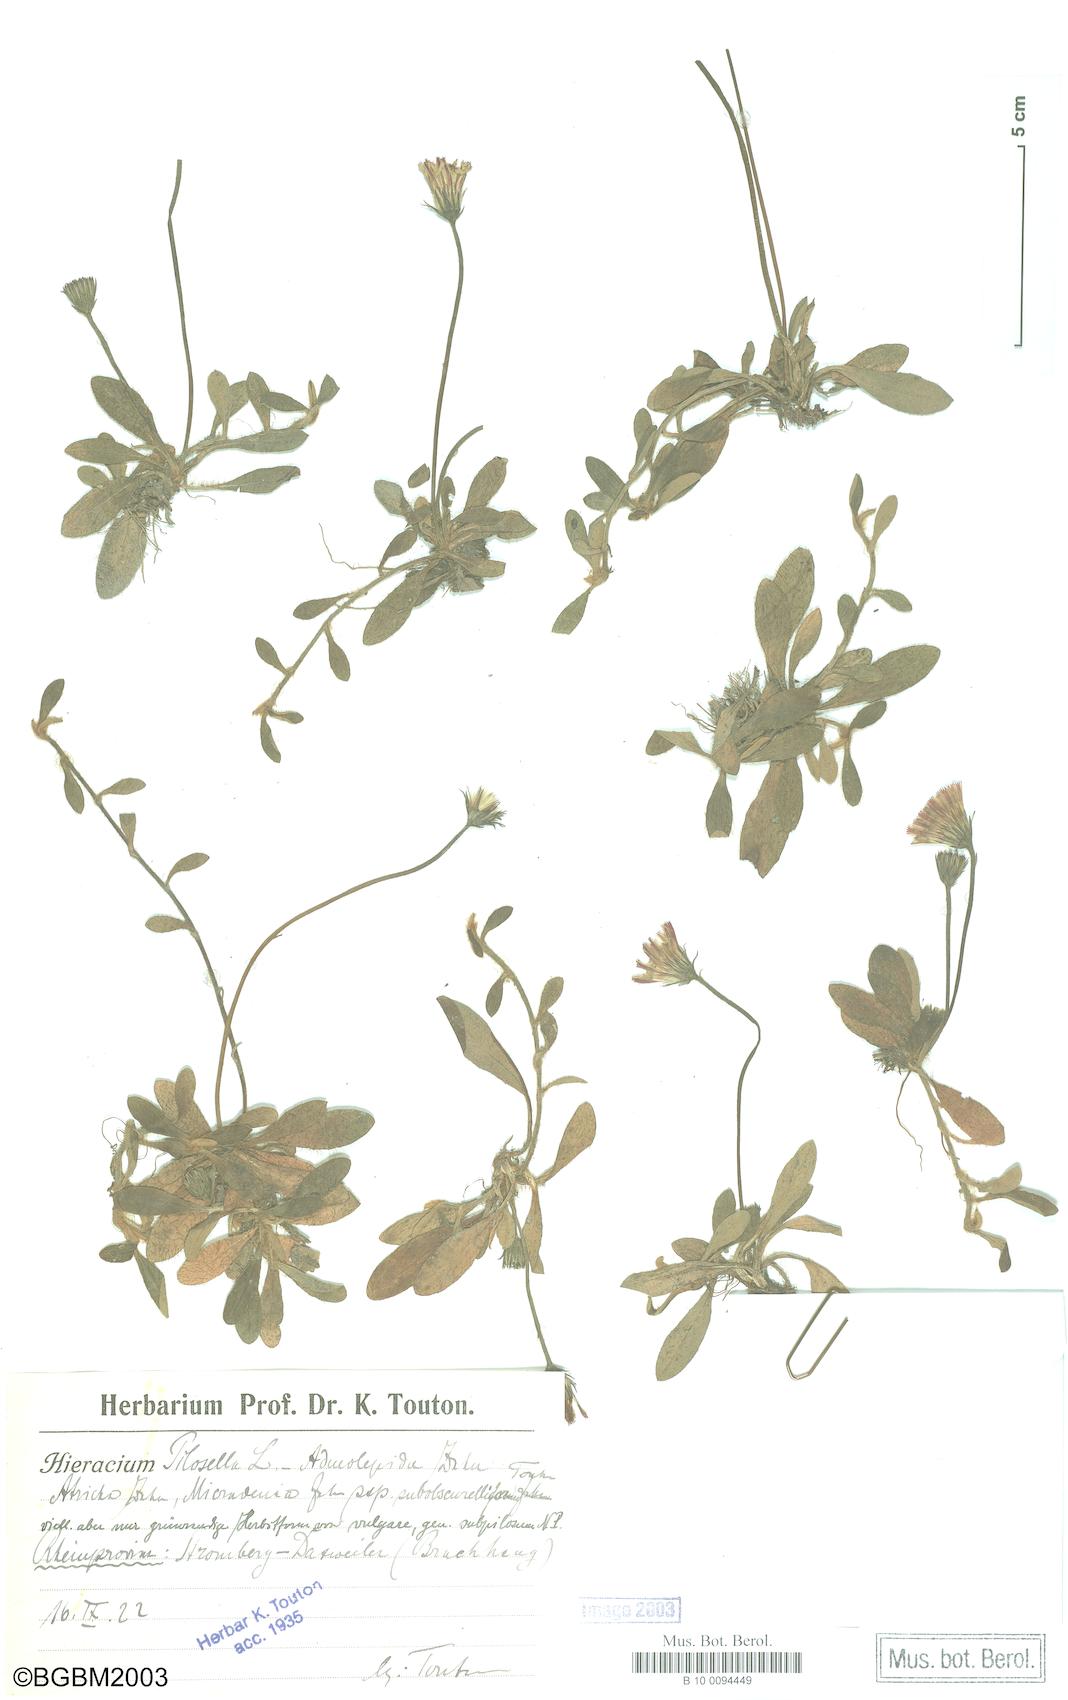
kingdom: Plantae
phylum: Tracheophyta
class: Magnoliopsida
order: Asterales
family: Asteraceae
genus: Pilosella
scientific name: Pilosella officinarum
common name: Mouse-ear hawkweed
